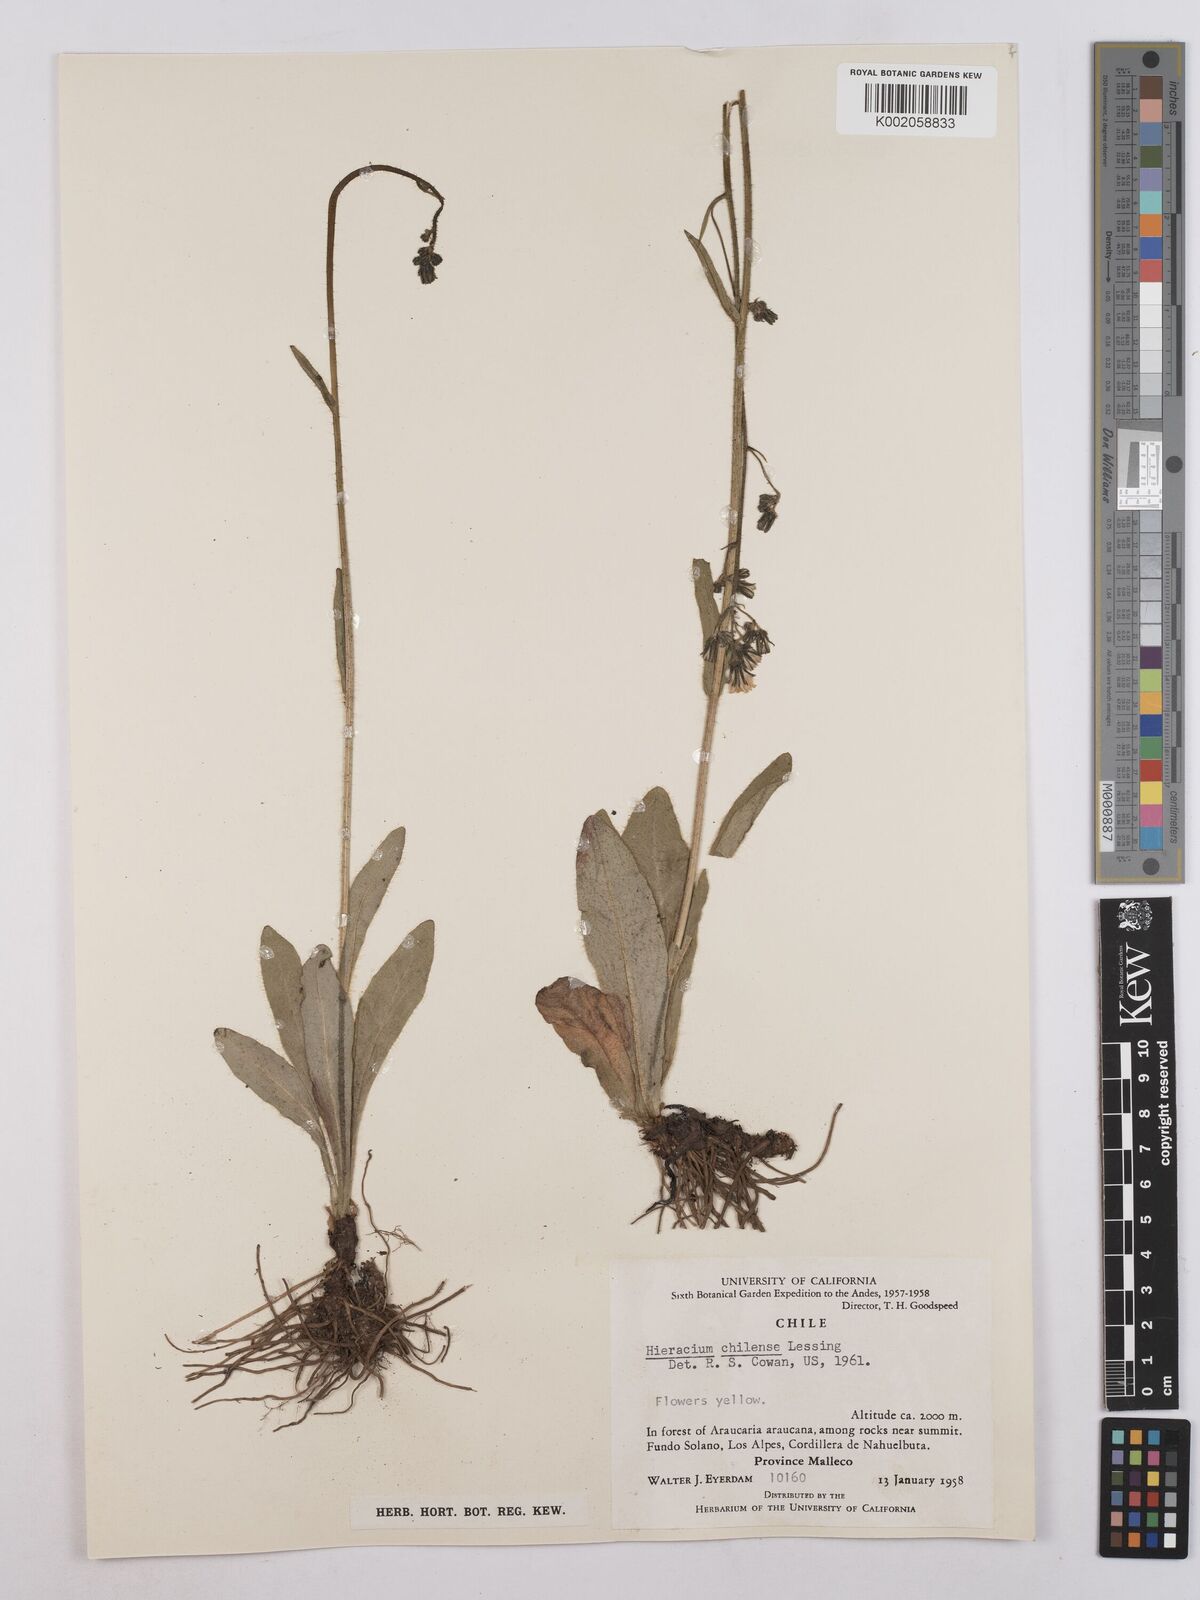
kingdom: Plantae
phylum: Tracheophyta
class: Magnoliopsida
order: Asterales
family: Asteraceae
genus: Hieracium
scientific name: Hieracium chilense
